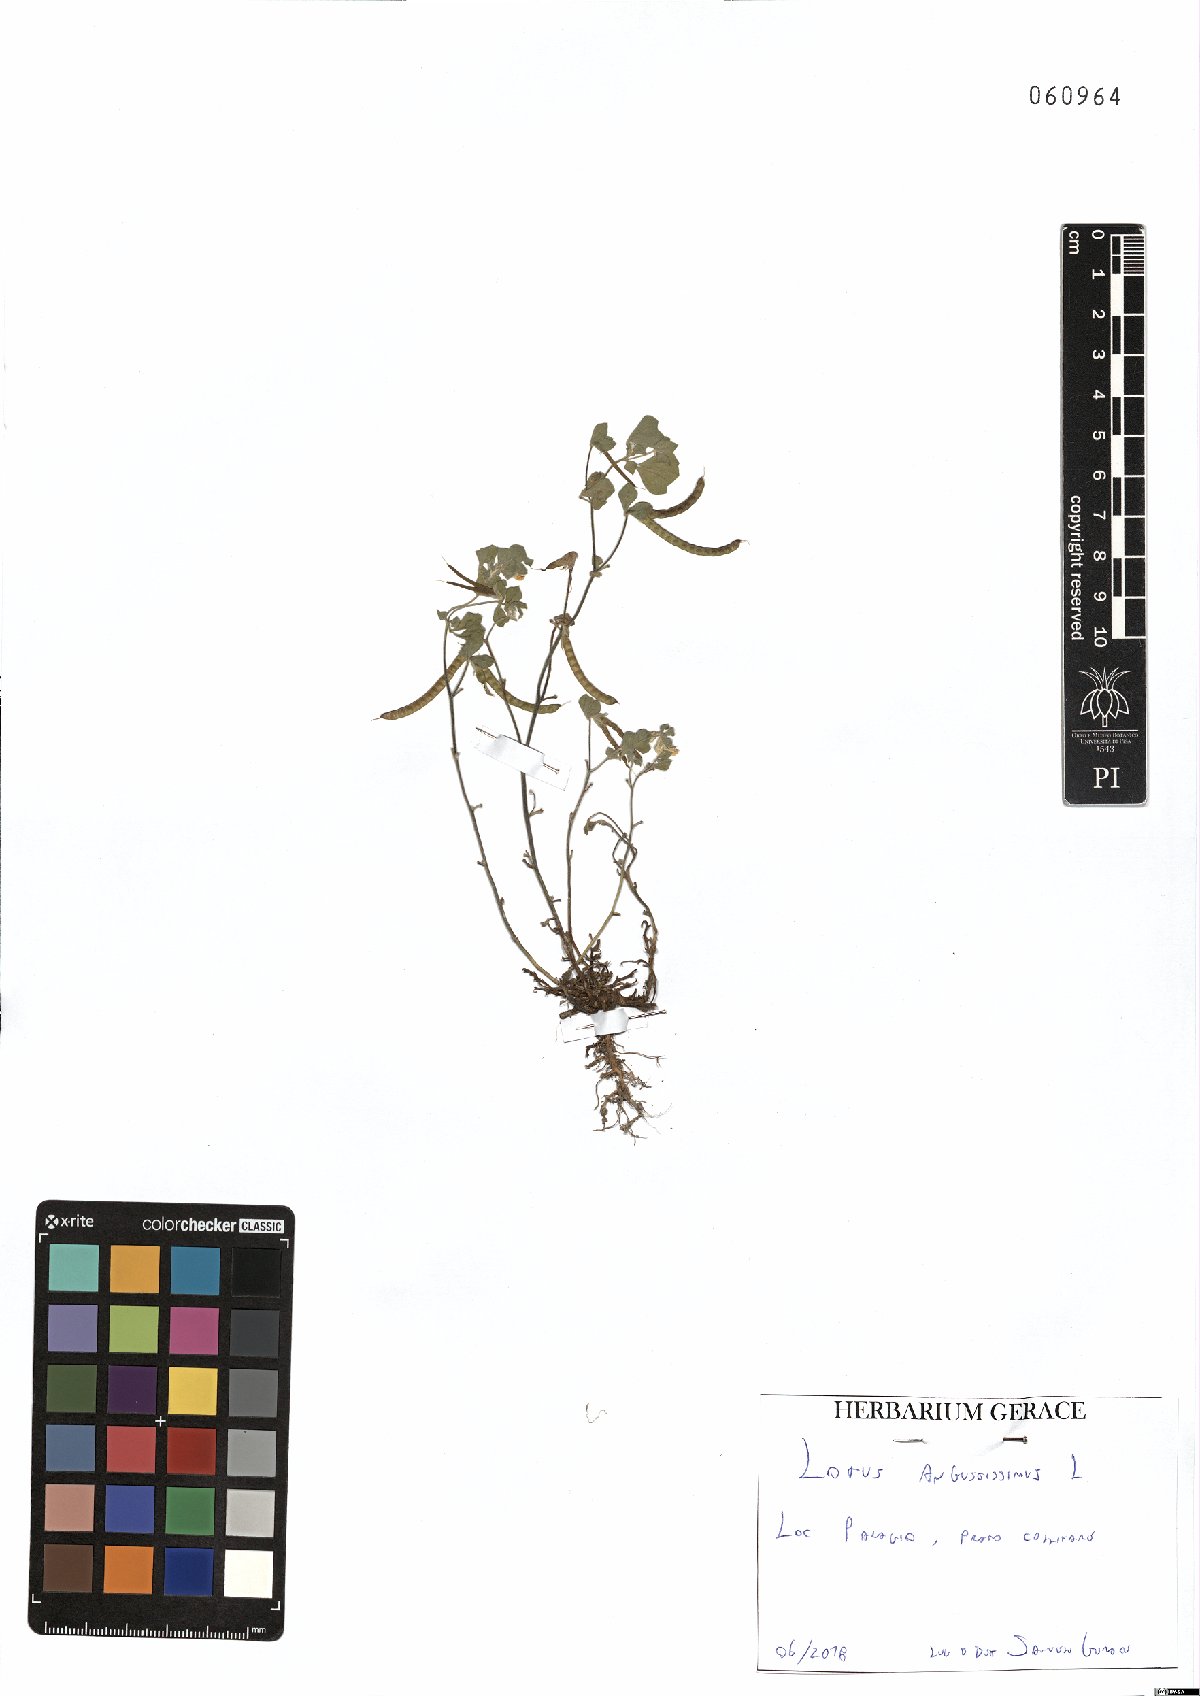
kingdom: Plantae
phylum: Tracheophyta
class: Magnoliopsida
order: Fabales
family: Fabaceae
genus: Lotus
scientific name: Lotus angustissimus
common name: Slender bird's-foot trefoil
